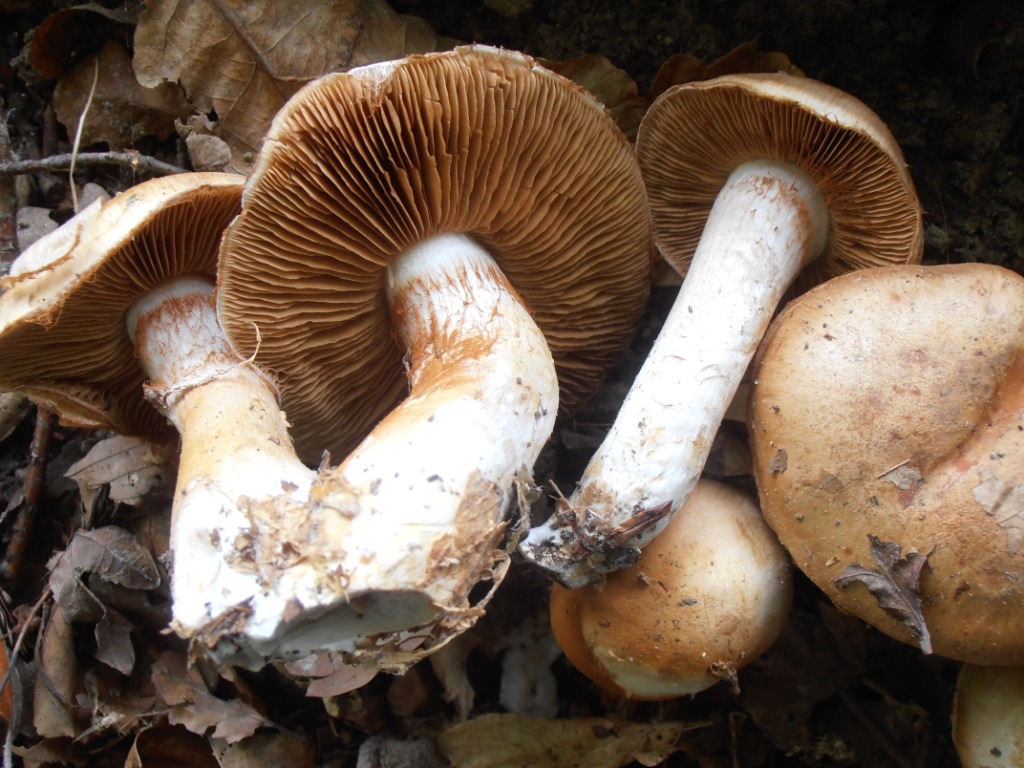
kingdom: Fungi
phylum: Basidiomycota
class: Agaricomycetes
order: Agaricales
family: Cortinariaceae
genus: Cortinarius
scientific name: Cortinarius largus
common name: violetrandet slørhat
